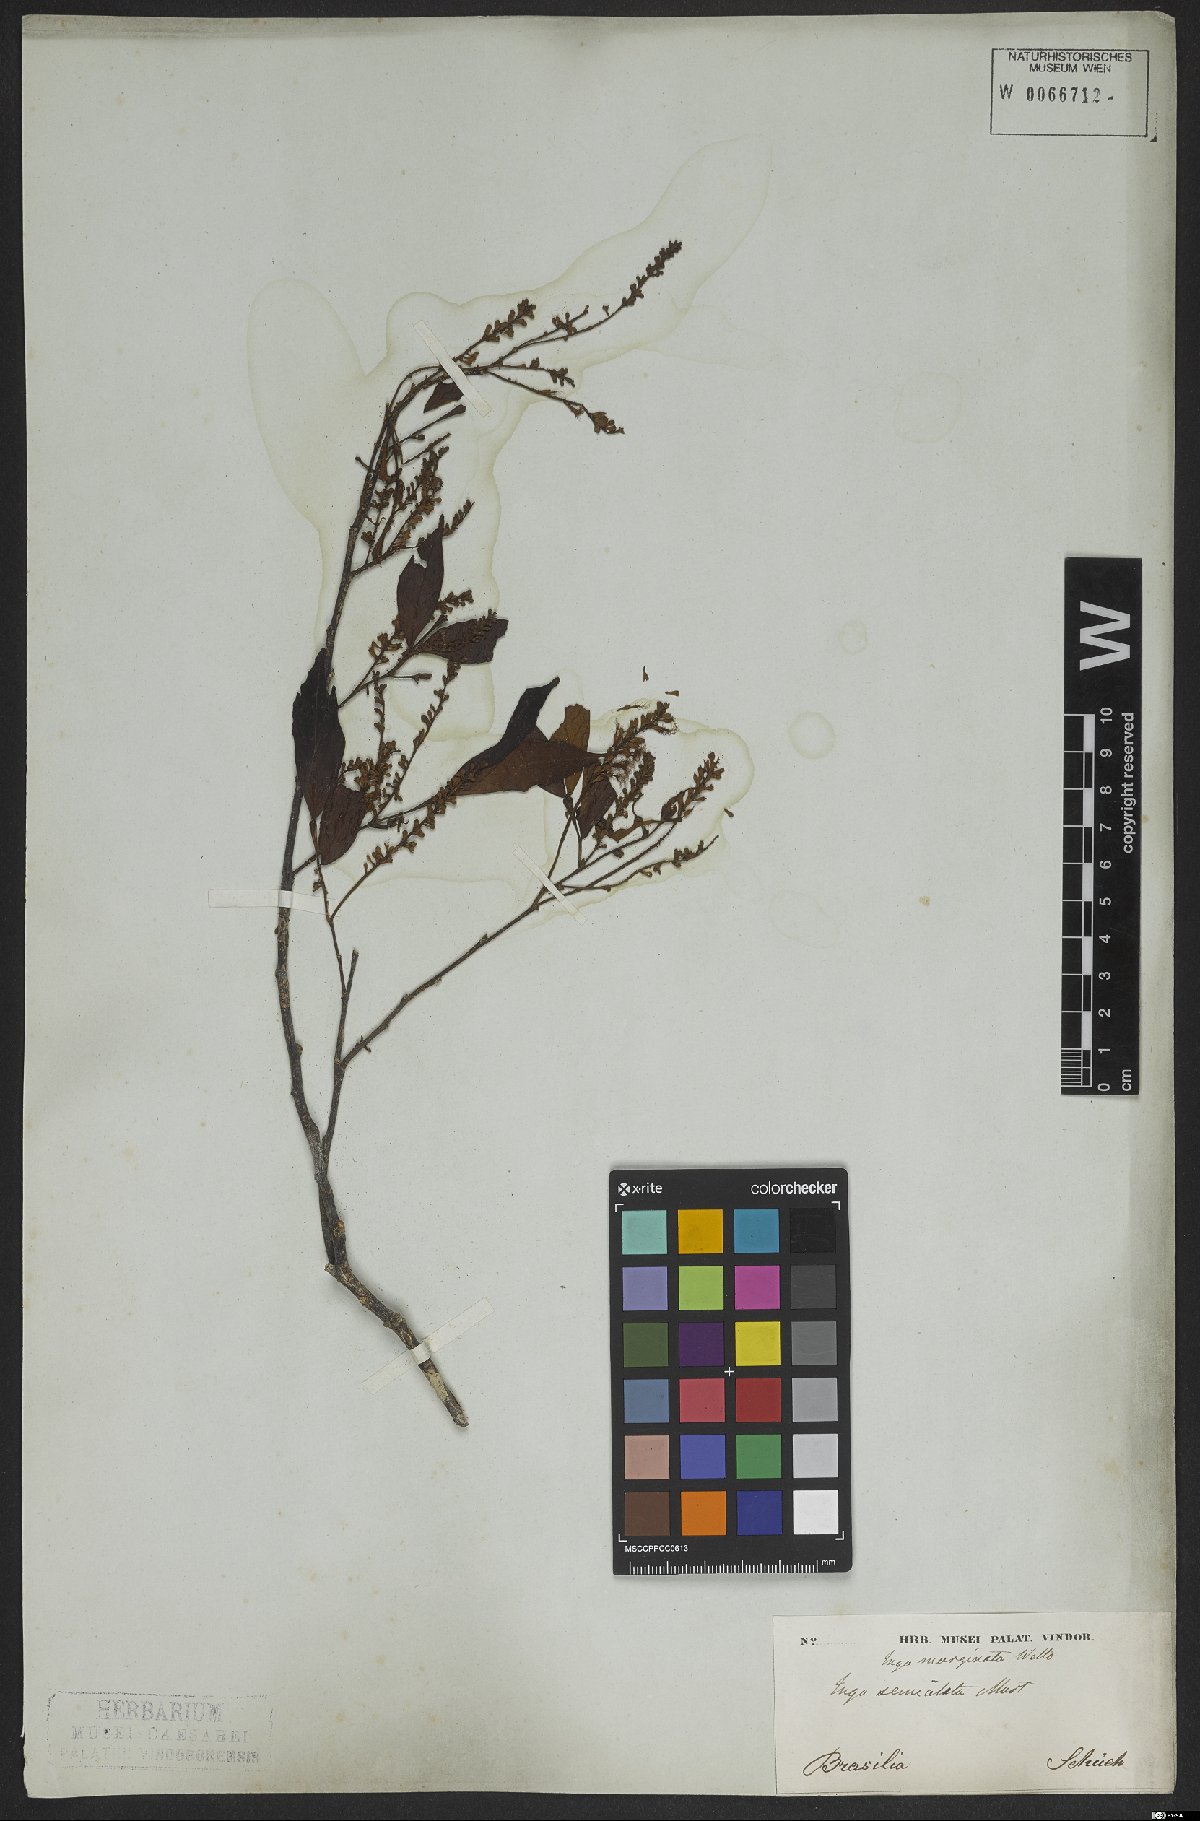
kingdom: Plantae
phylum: Tracheophyta
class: Magnoliopsida
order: Fabales
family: Fabaceae
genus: Inga
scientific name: Inga marginata
